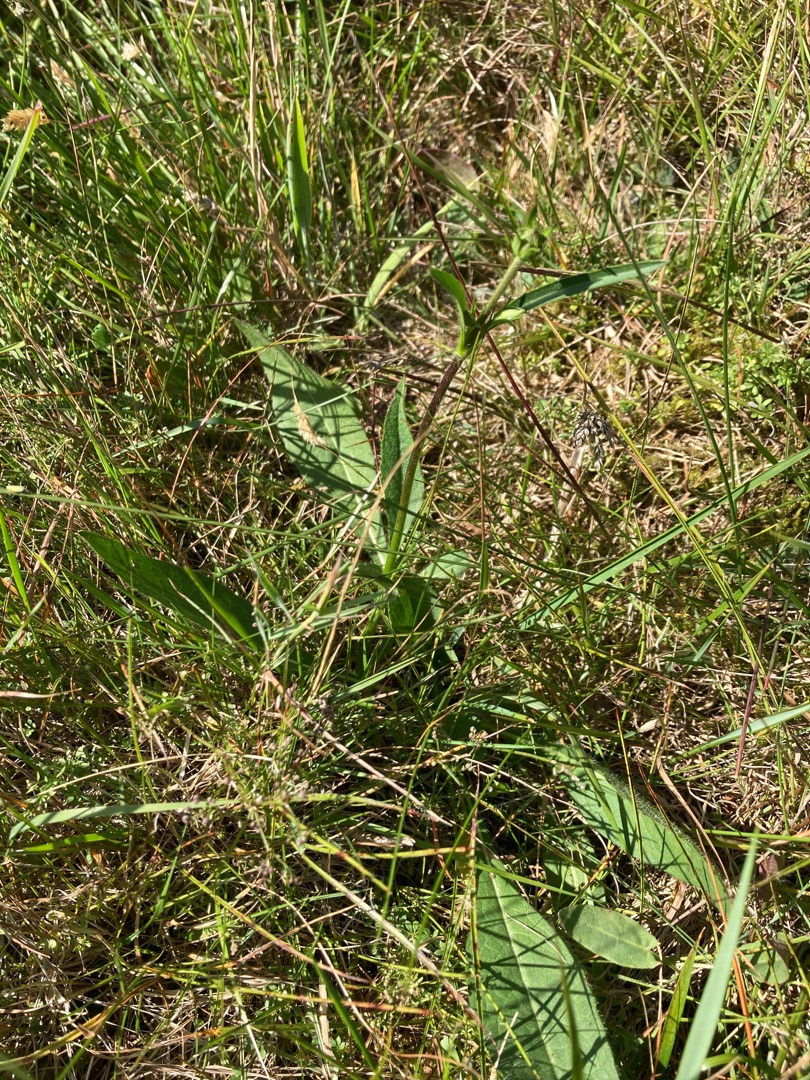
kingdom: Plantae
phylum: Tracheophyta
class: Magnoliopsida
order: Dipsacales
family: Caprifoliaceae
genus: Succisa
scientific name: Succisa pratensis
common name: Djævelsbid
